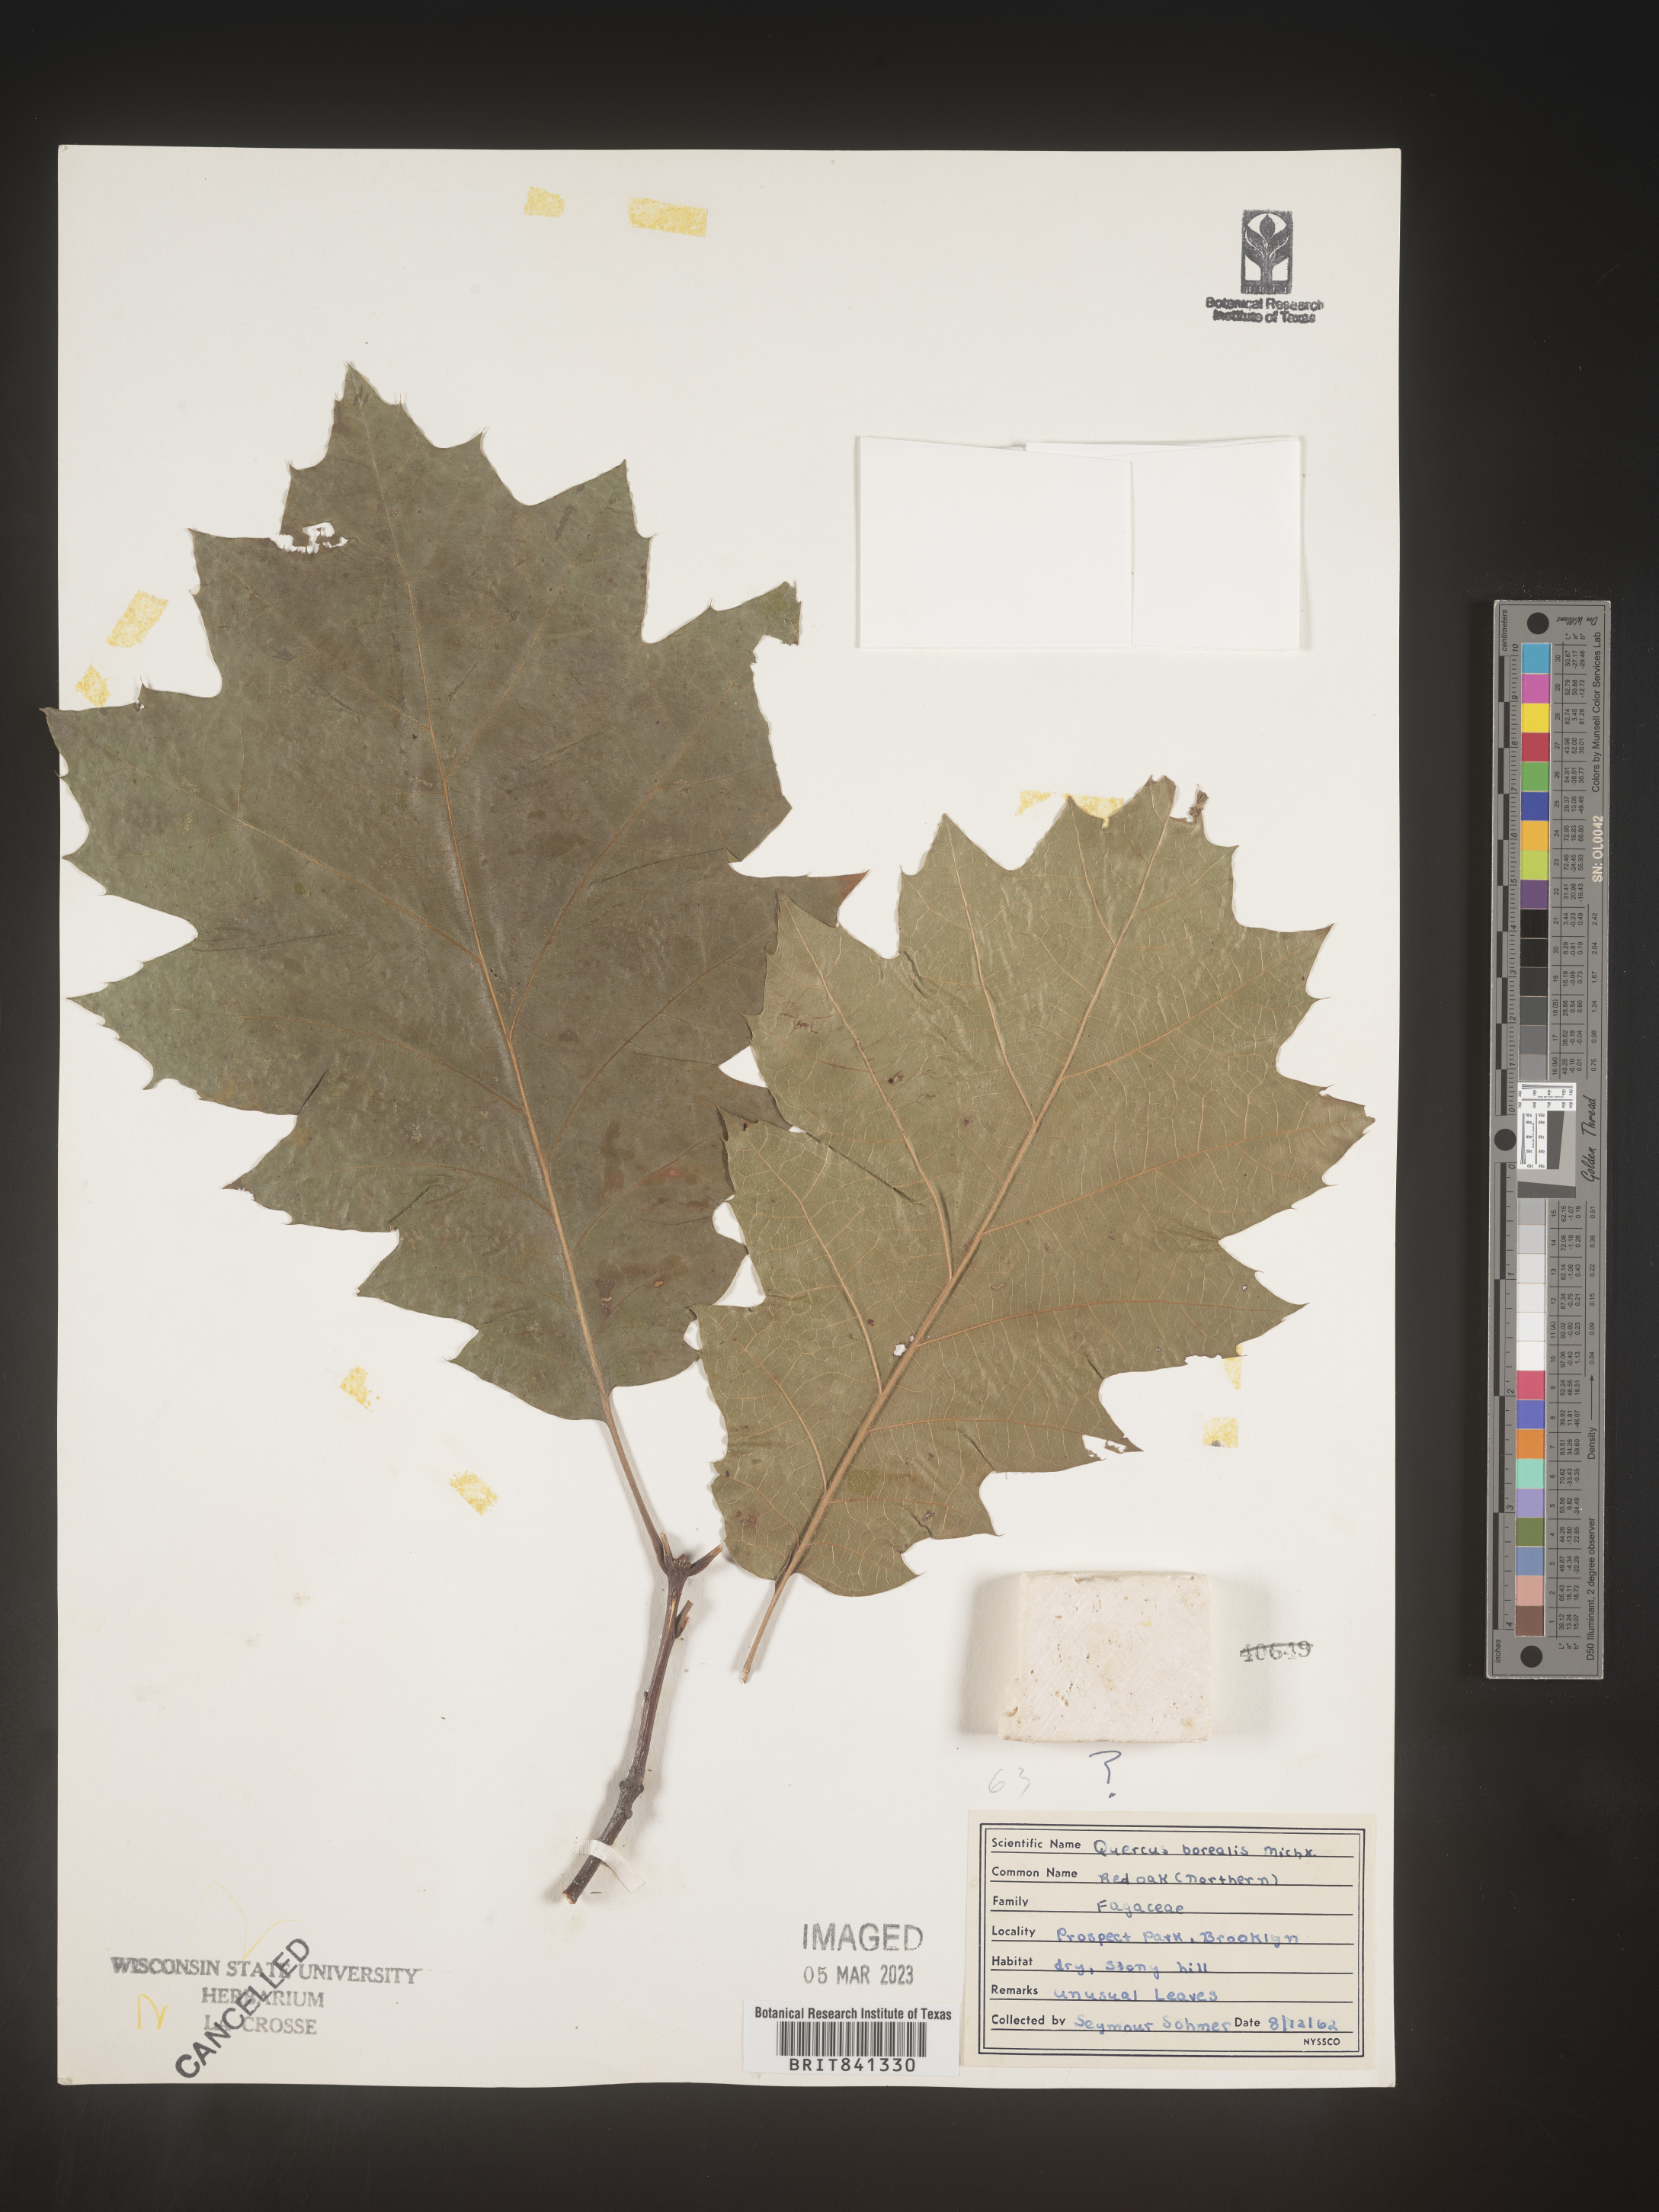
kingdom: Plantae
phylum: Tracheophyta
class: Magnoliopsida
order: Fagales
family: Fagaceae
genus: Quercus
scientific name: Quercus rubra
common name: Red oak
